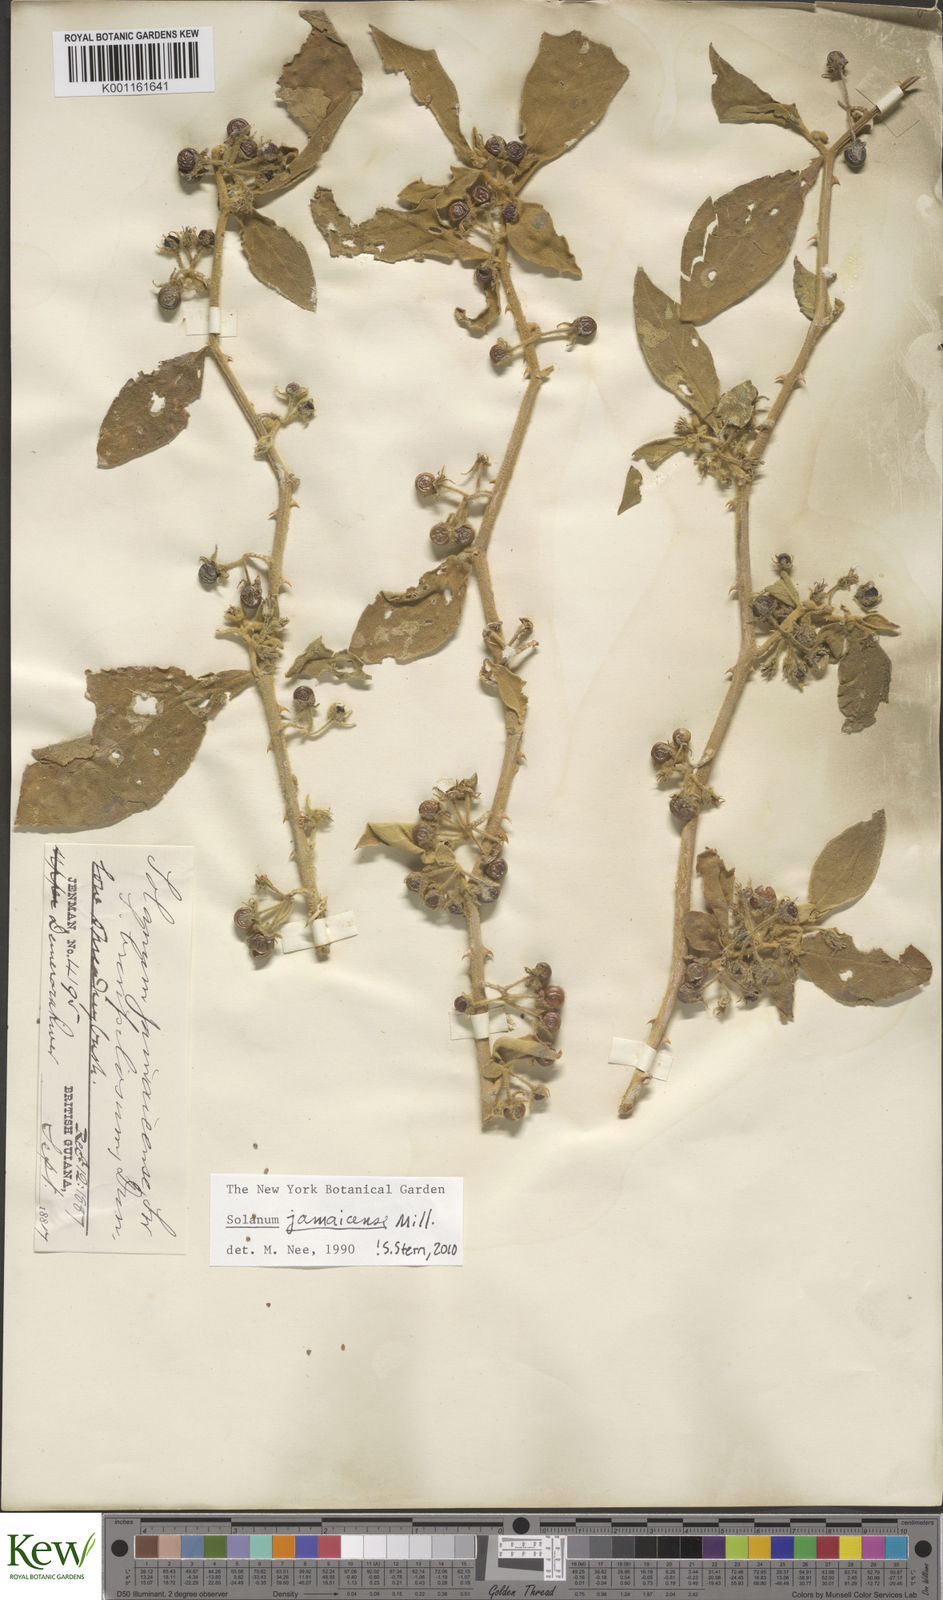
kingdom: Plantae
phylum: Tracheophyta
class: Magnoliopsida
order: Solanales
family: Solanaceae
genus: Solanum
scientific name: Solanum jamaicense
